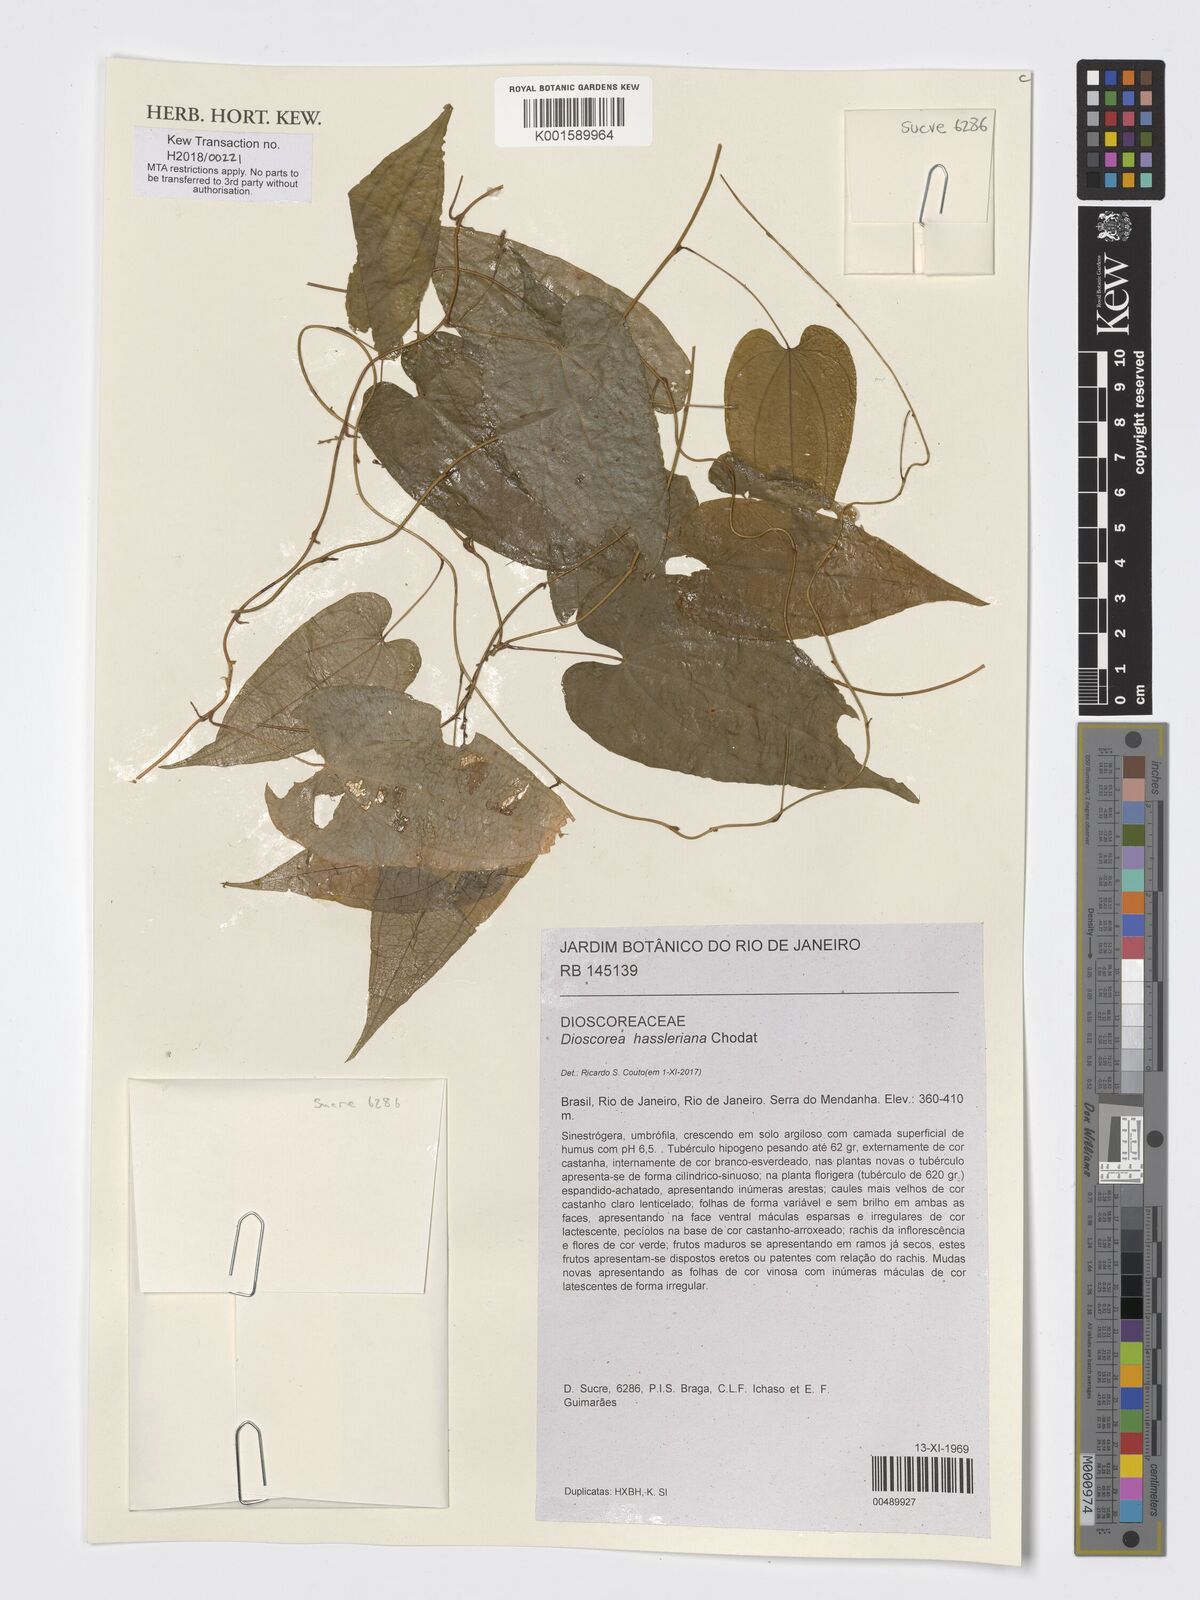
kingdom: Plantae
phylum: Tracheophyta
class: Liliopsida
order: Dioscoreales
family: Dioscoreaceae
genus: Dioscorea
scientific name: Dioscorea hassleriana
